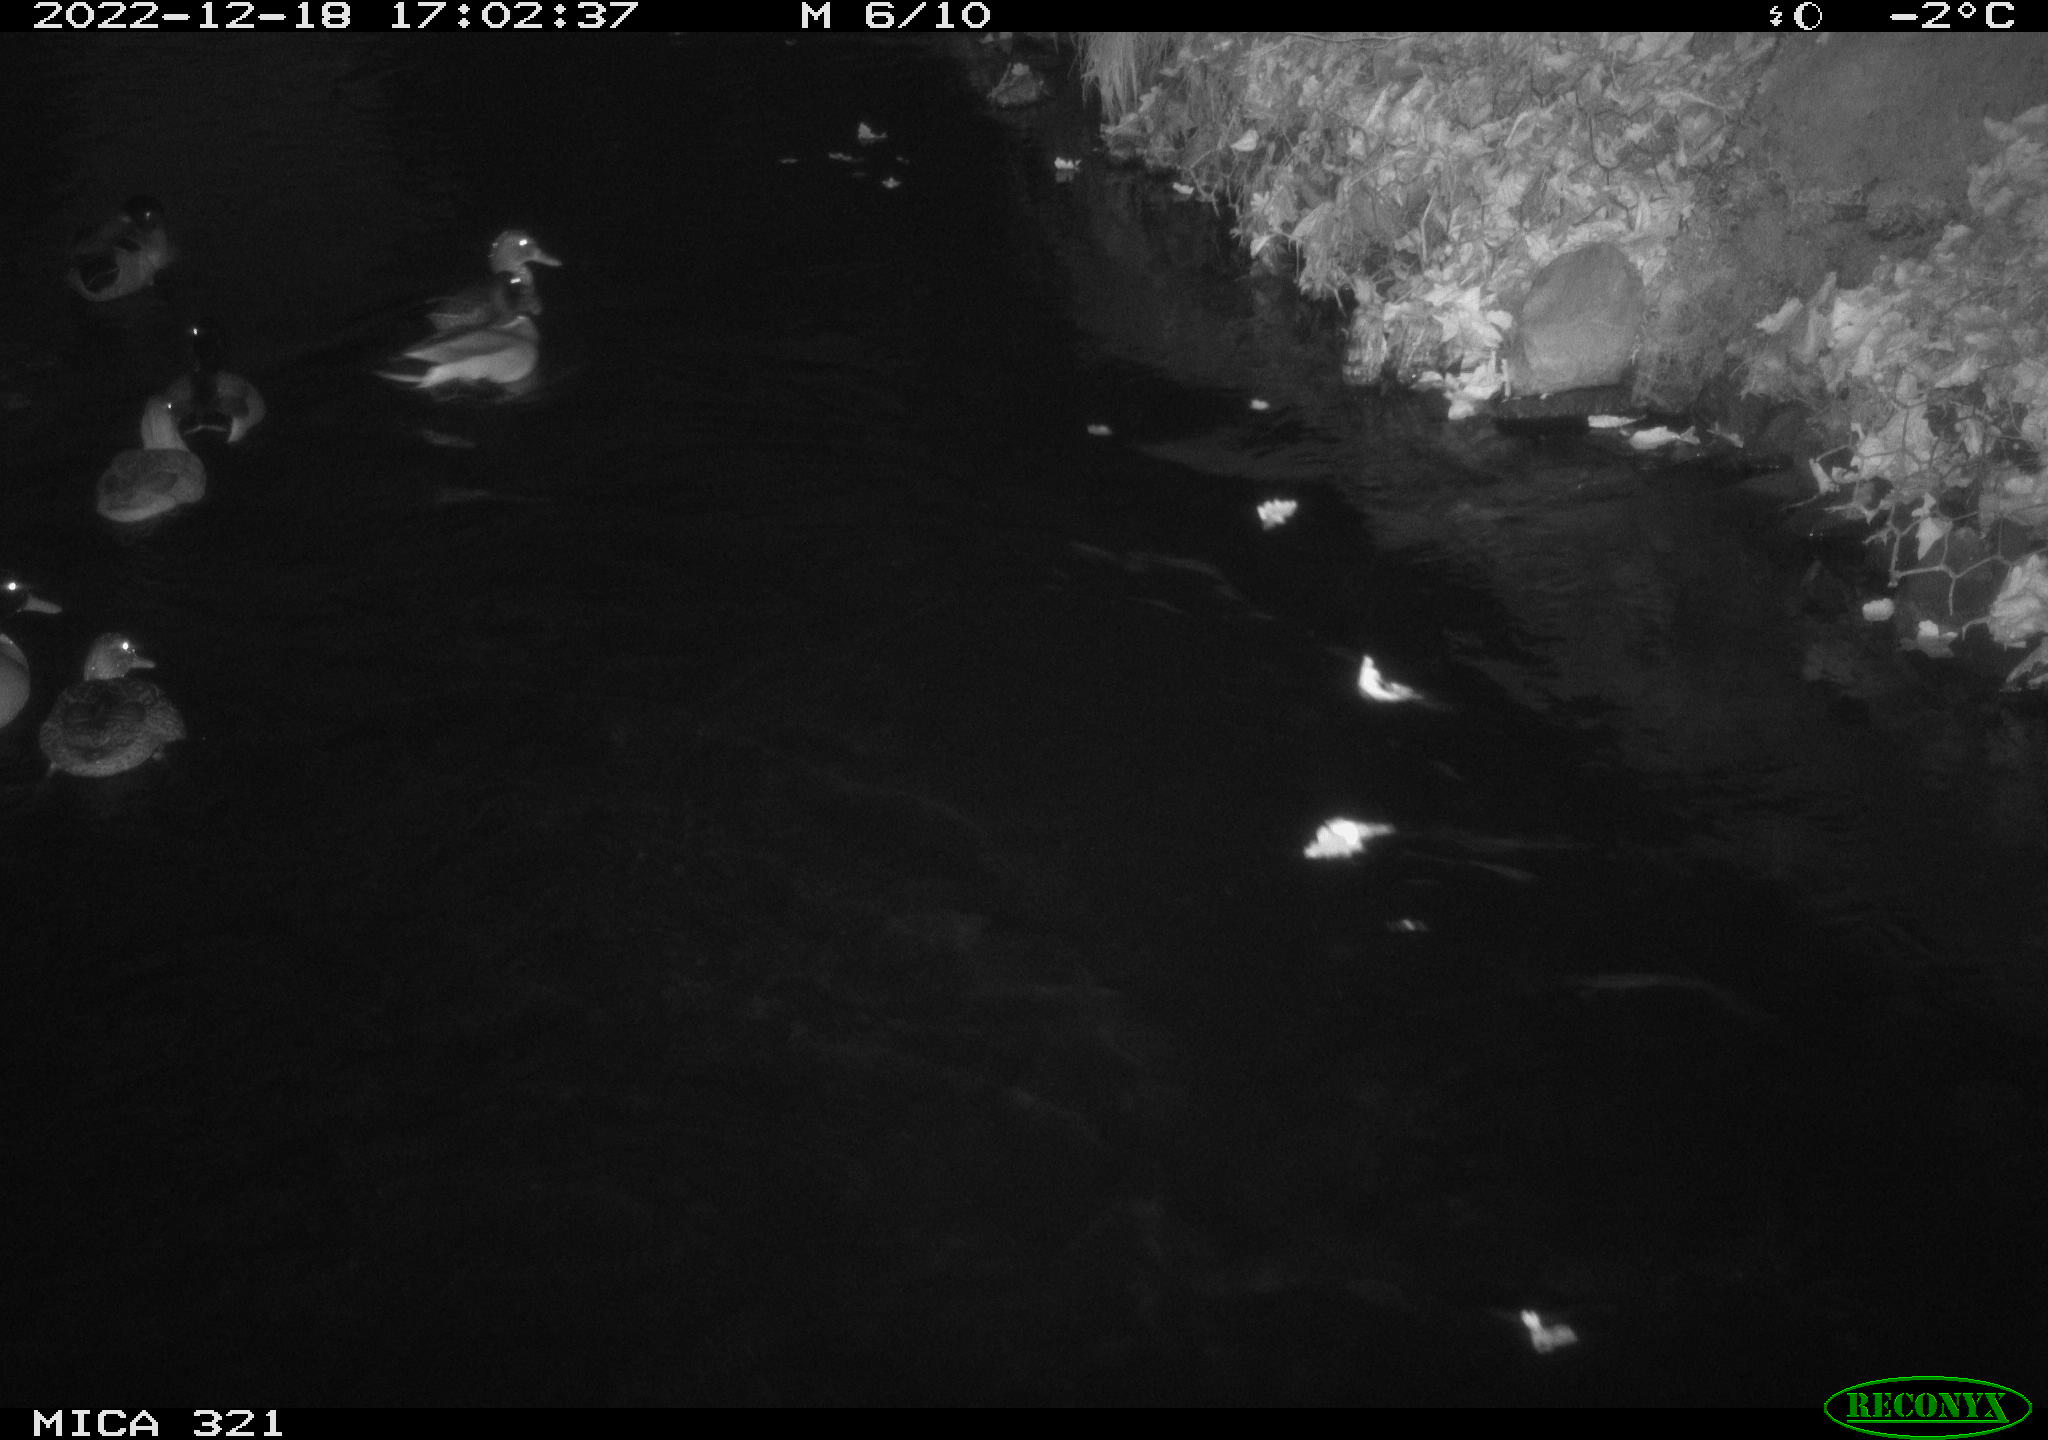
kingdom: Animalia
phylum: Chordata
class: Aves
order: Anseriformes
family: Anatidae
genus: Anas
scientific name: Anas
